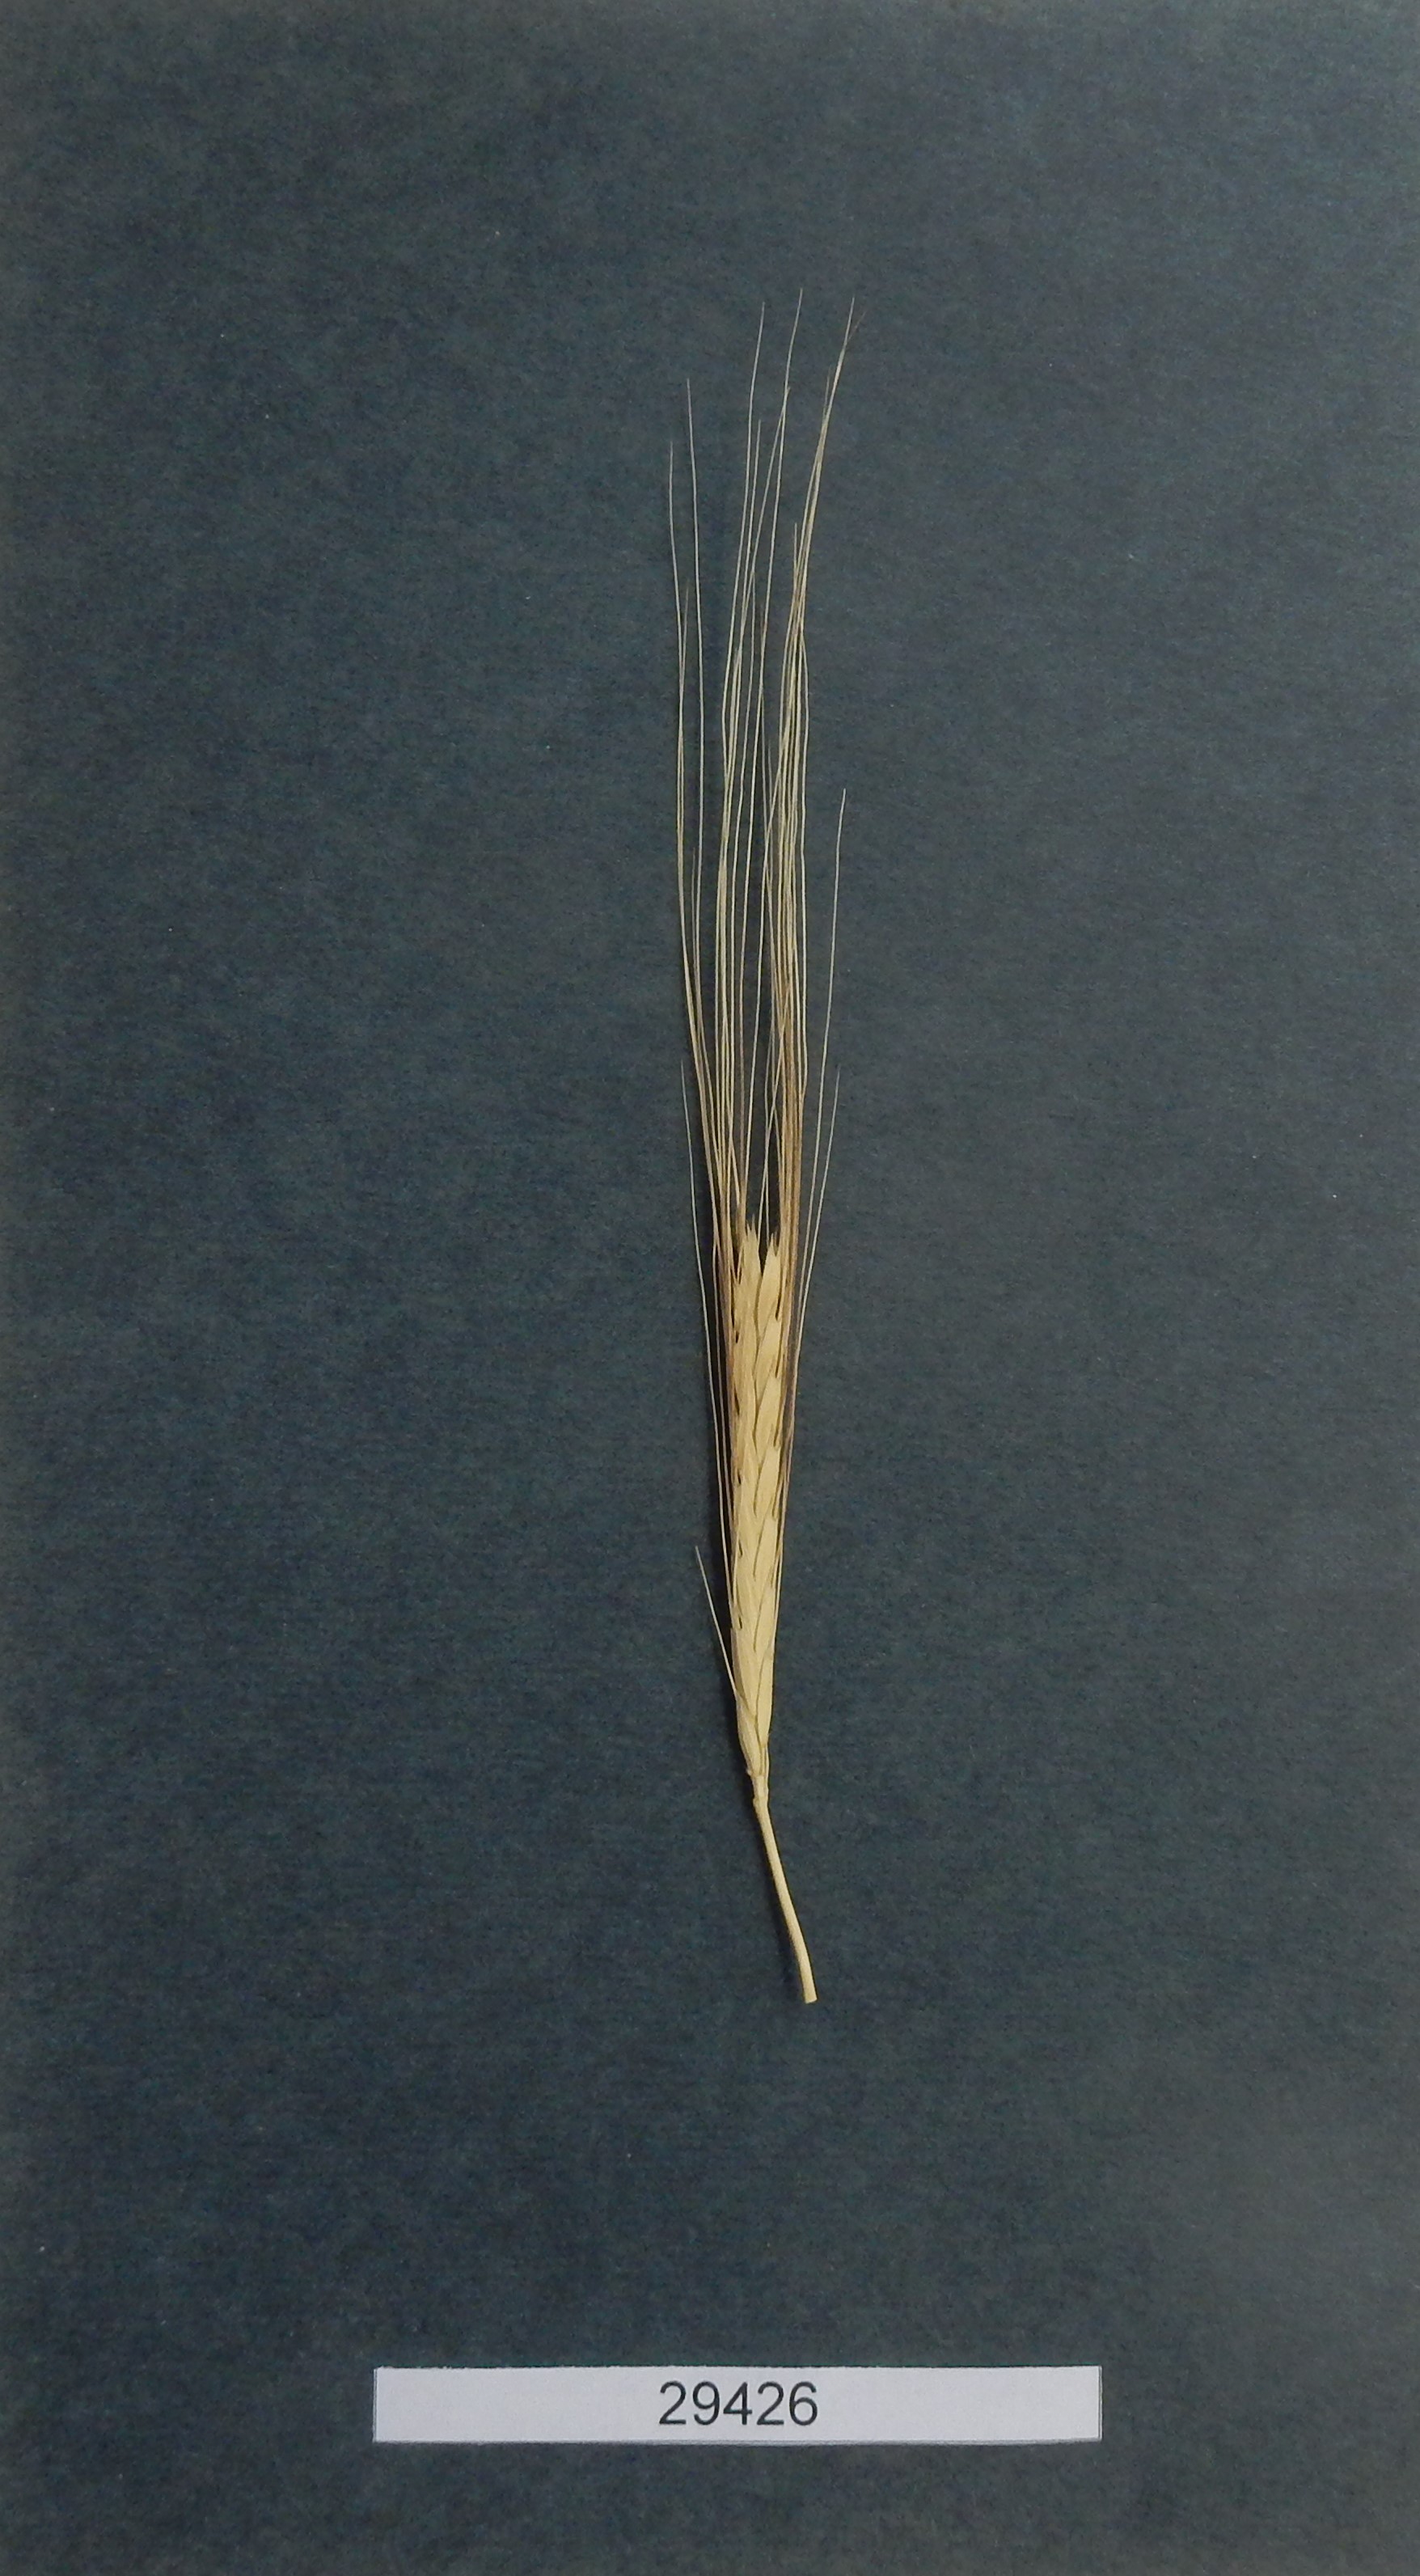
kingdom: Plantae
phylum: Tracheophyta
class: Liliopsida
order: Poales
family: Poaceae
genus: Triticum
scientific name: Triticum urartu
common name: Red wild einkorn
